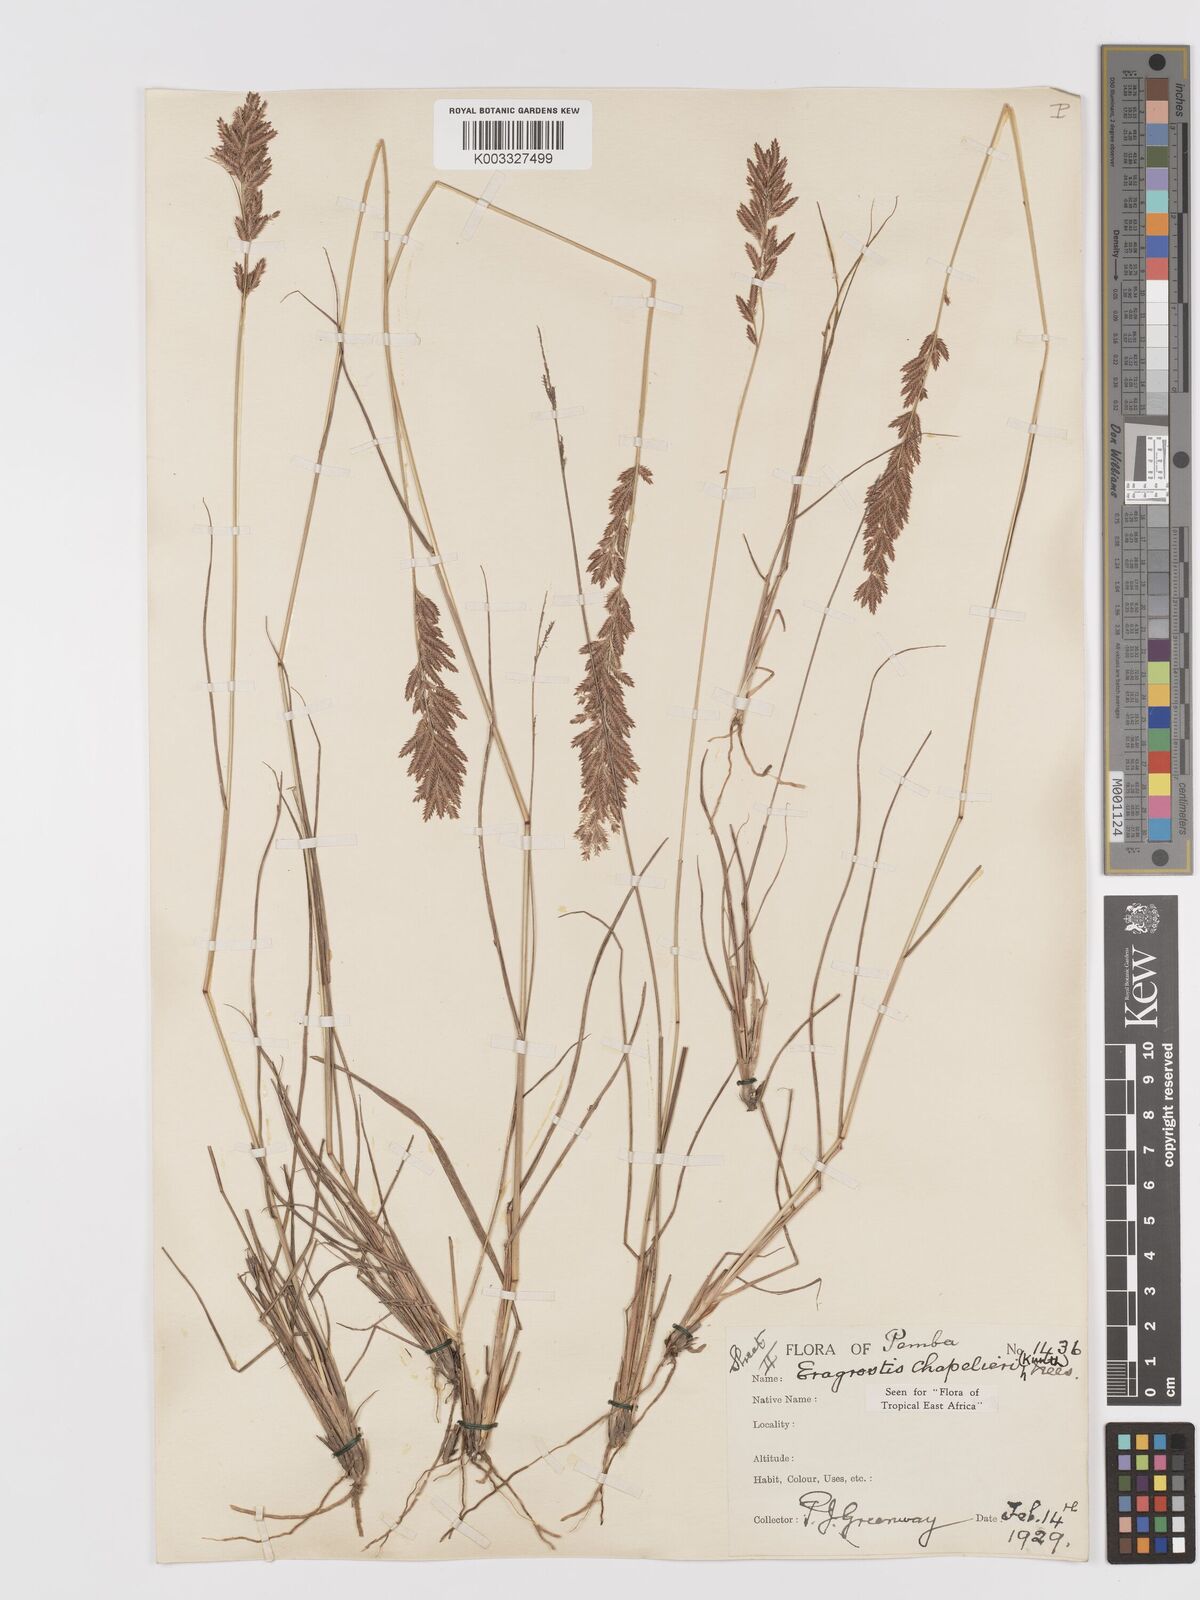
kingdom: Plantae
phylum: Tracheophyta
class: Liliopsida
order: Poales
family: Poaceae
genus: Eragrostis
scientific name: Eragrostis chapelieri
